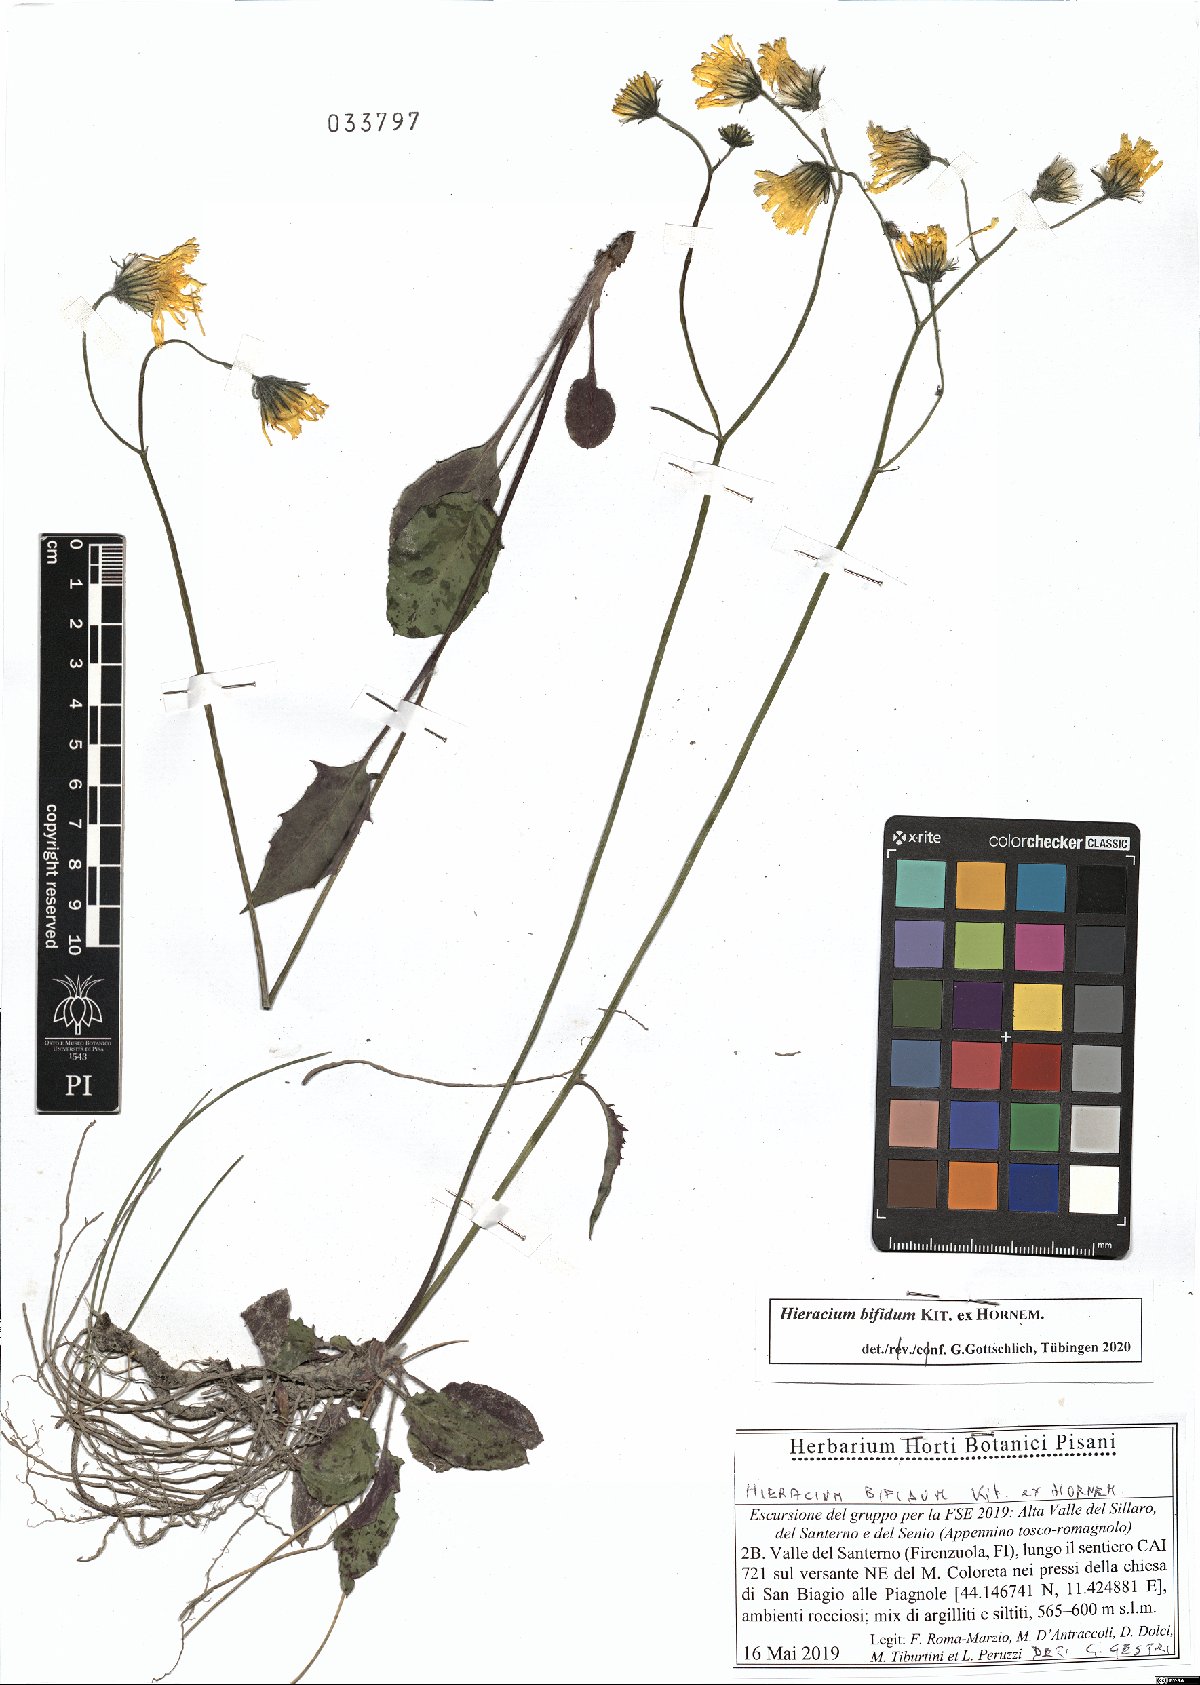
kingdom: Plantae
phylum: Tracheophyta
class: Magnoliopsida
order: Asterales
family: Asteraceae
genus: Hieracium
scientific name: Hieracium bifidum
